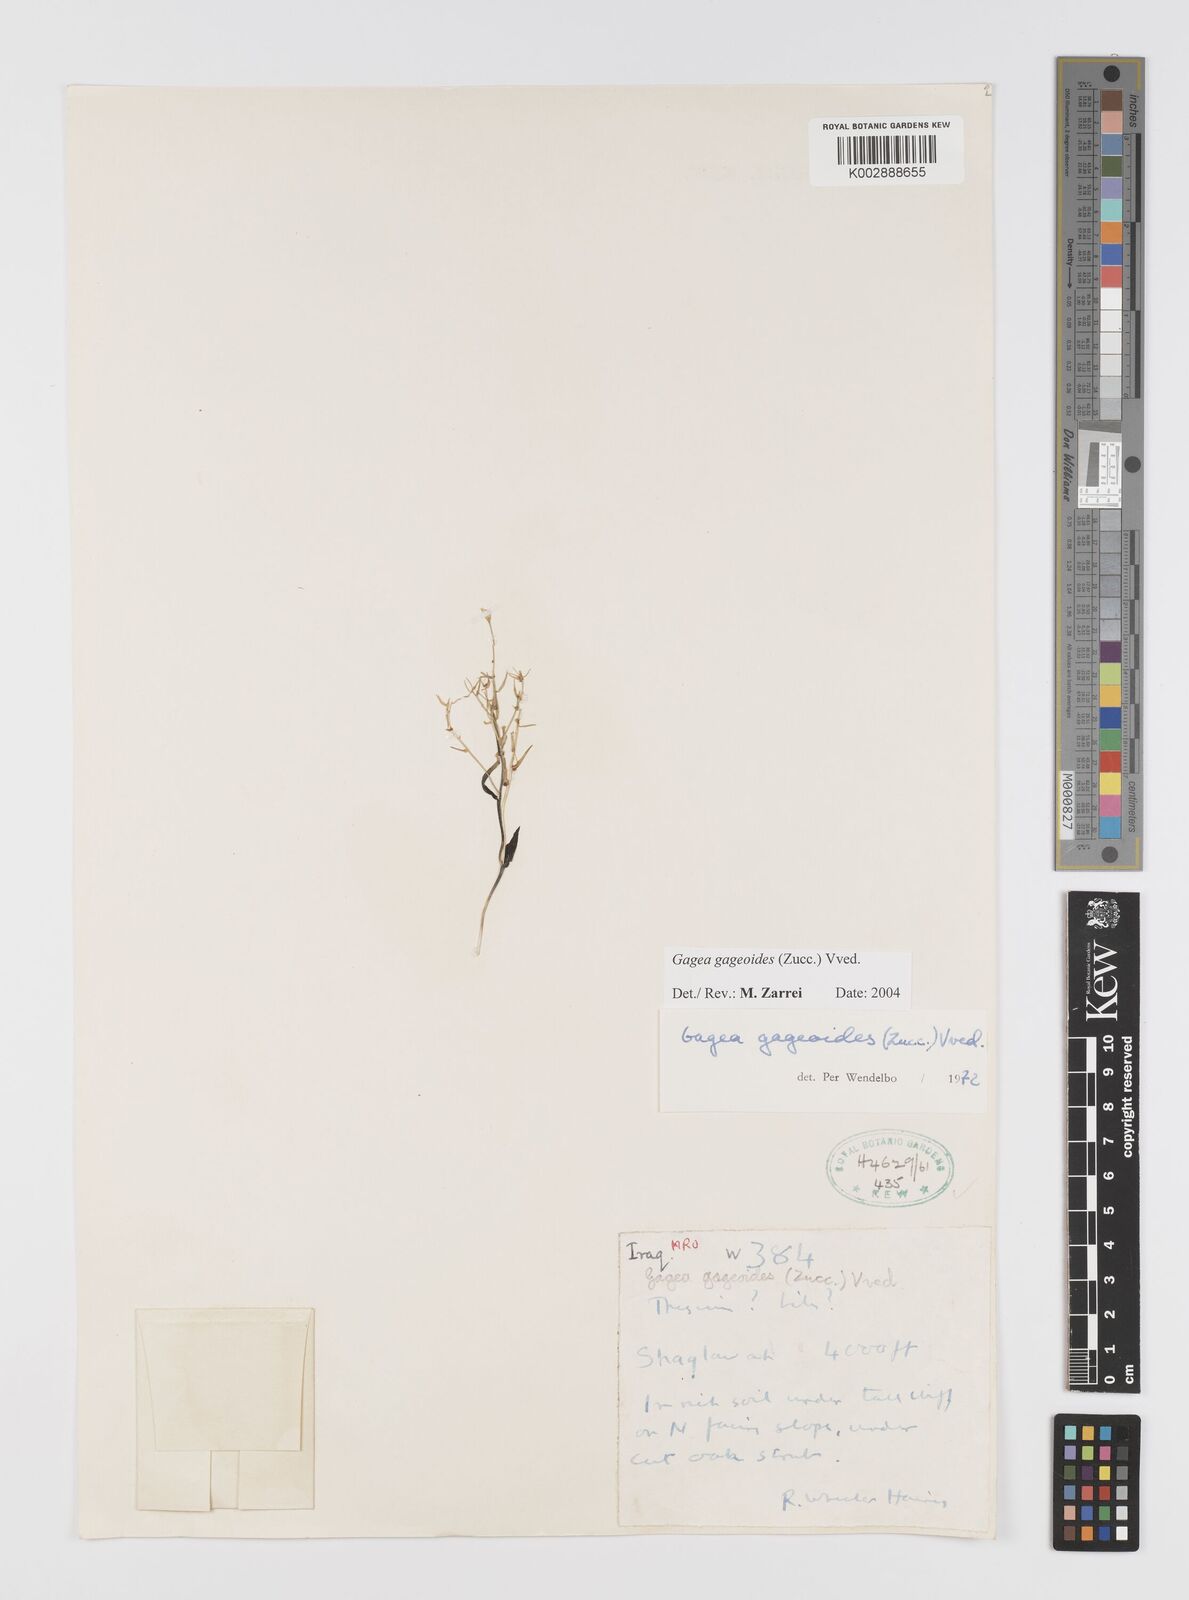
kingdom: Plantae
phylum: Tracheophyta
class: Liliopsida
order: Liliales
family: Liliaceae
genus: Gagea
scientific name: Gagea gageoides
